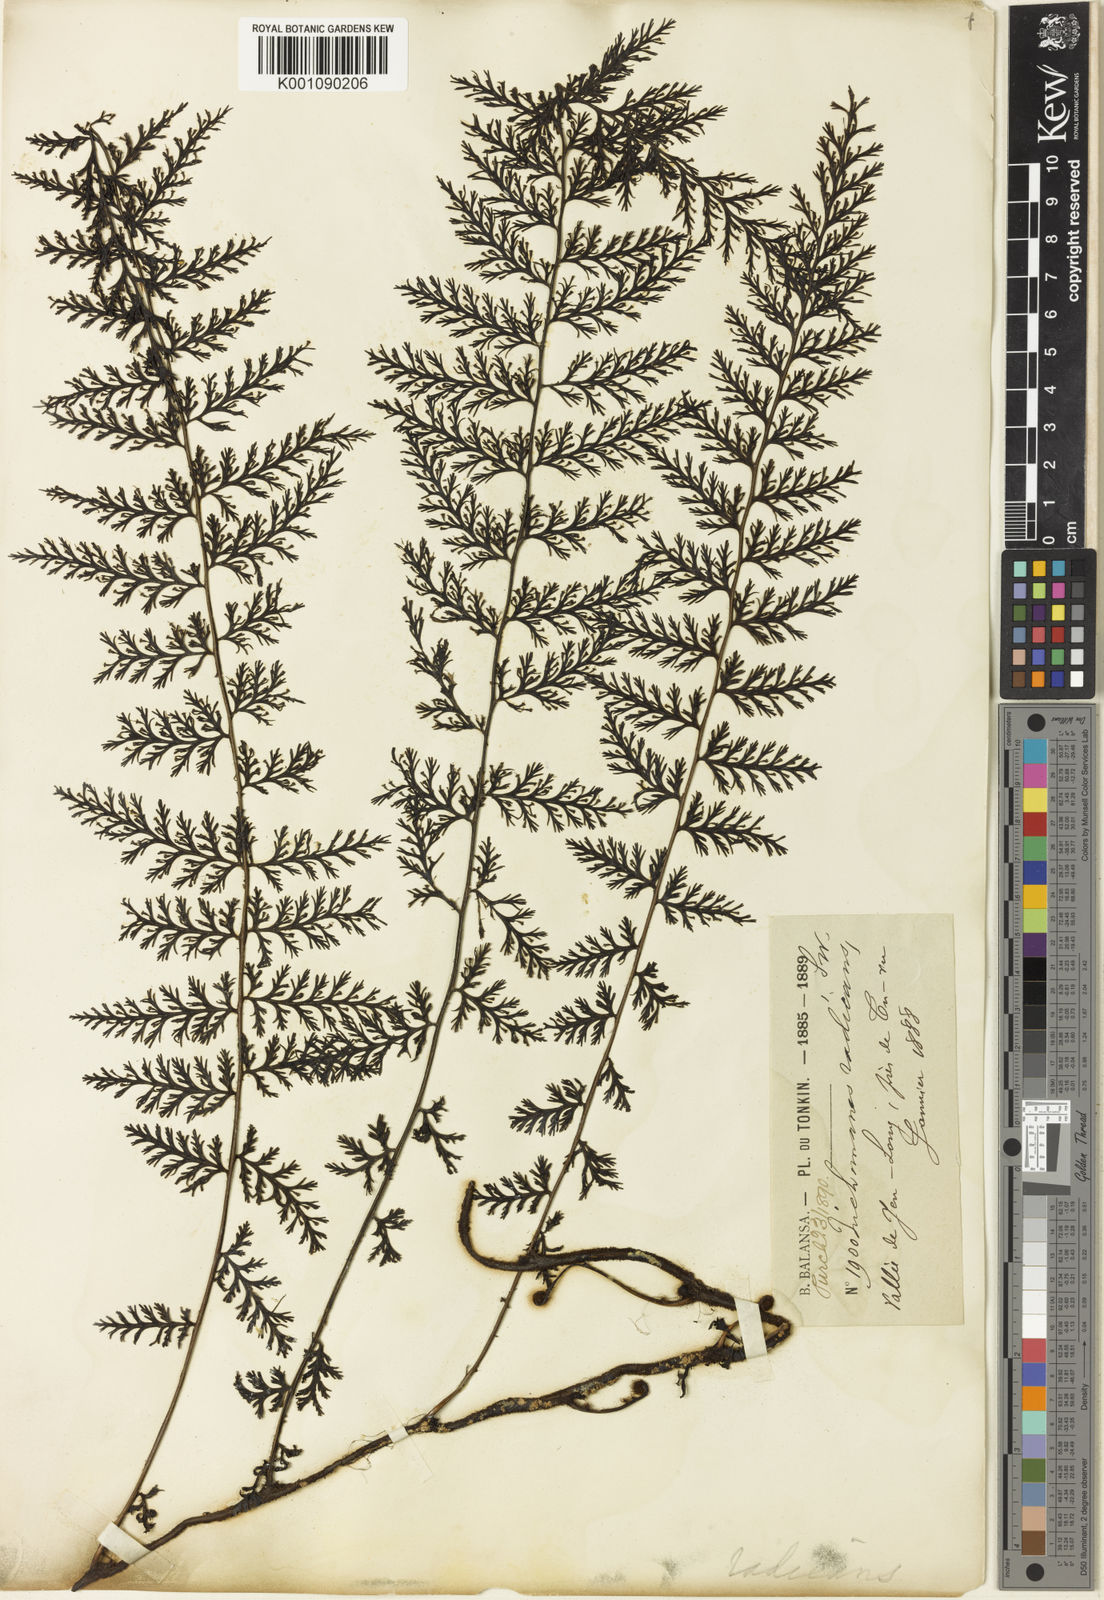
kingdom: Plantae
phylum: Tracheophyta
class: Polypodiopsida
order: Hymenophyllales
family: Hymenophyllaceae
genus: Vandenboschia
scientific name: Vandenboschia speciosa
